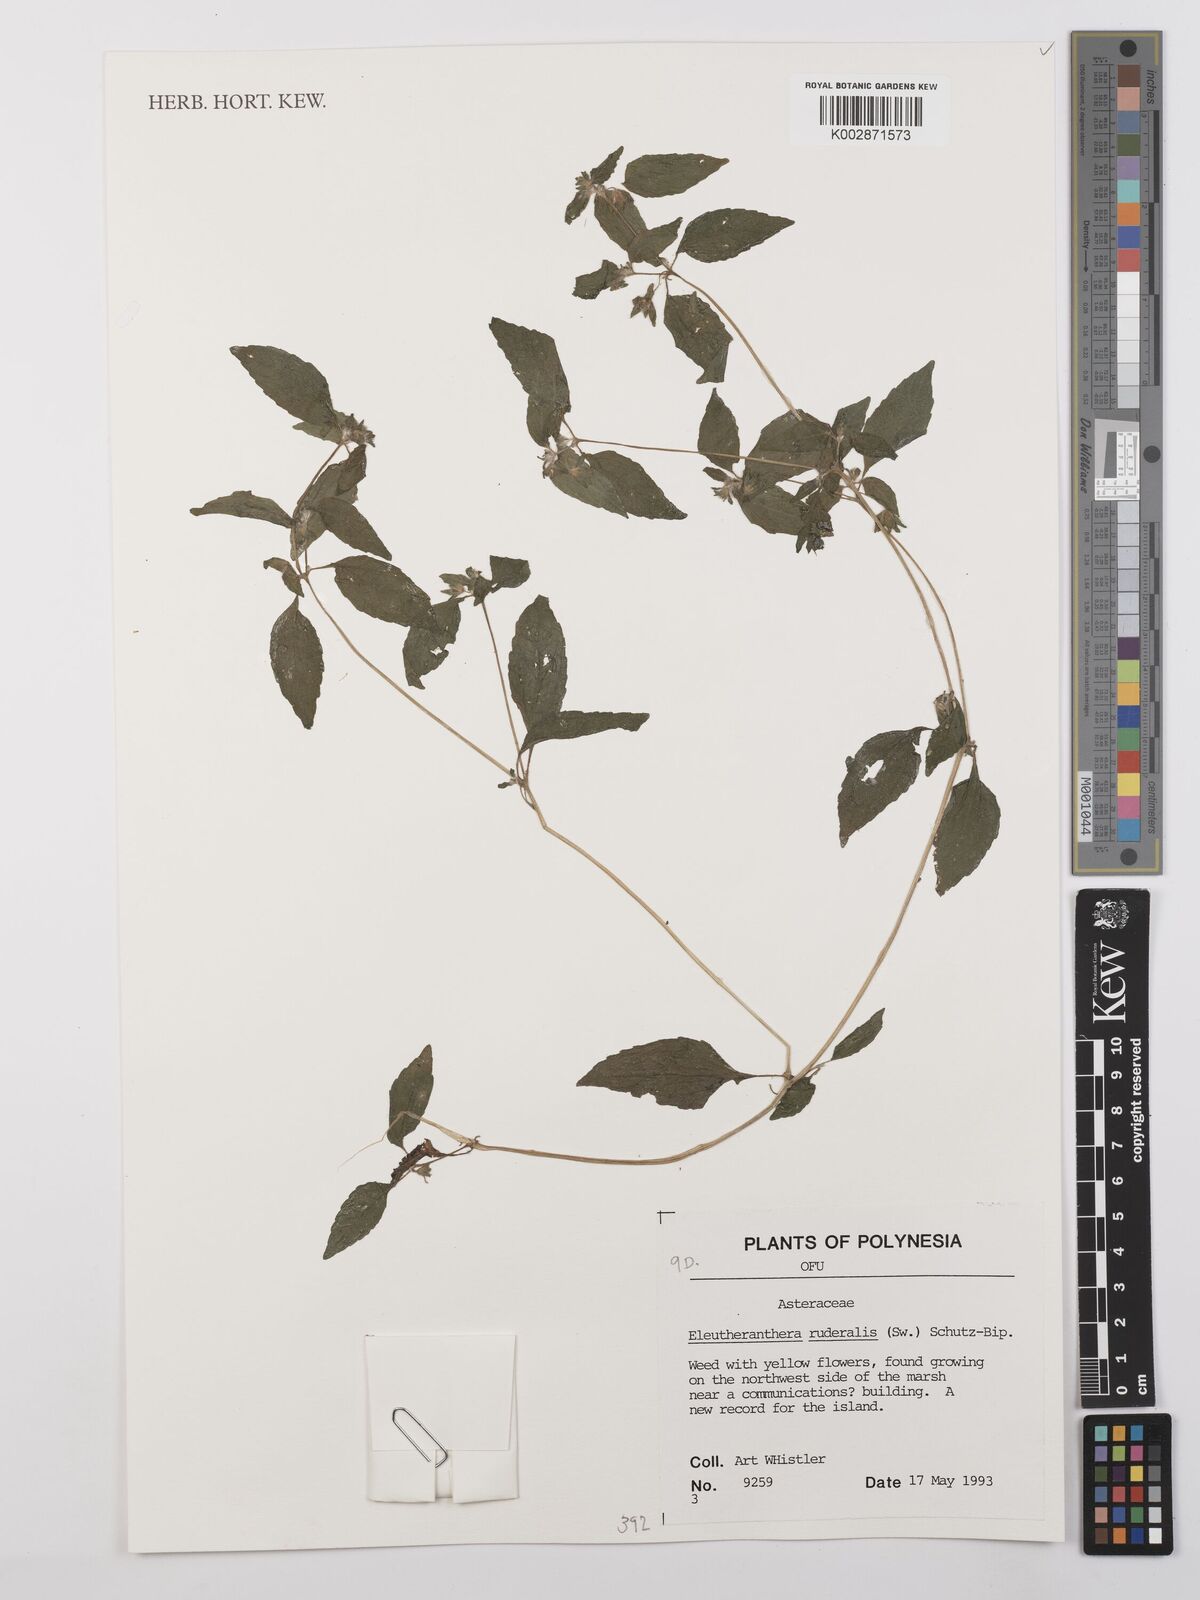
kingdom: Plantae
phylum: Tracheophyta
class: Magnoliopsida
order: Asterales
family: Asteraceae
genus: Eleutheranthera
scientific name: Eleutheranthera ruderalis
